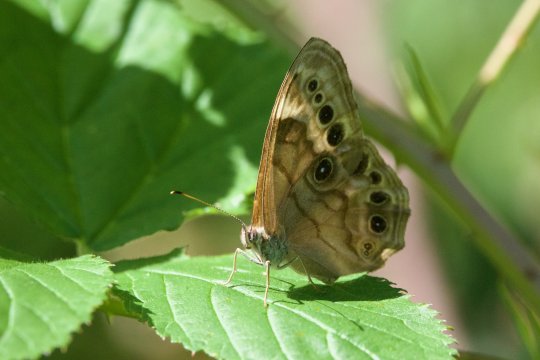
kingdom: Animalia
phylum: Arthropoda
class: Insecta
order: Lepidoptera
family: Nymphalidae
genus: Lethe
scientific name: Lethe anthedon
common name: Northern Pearly-Eye
